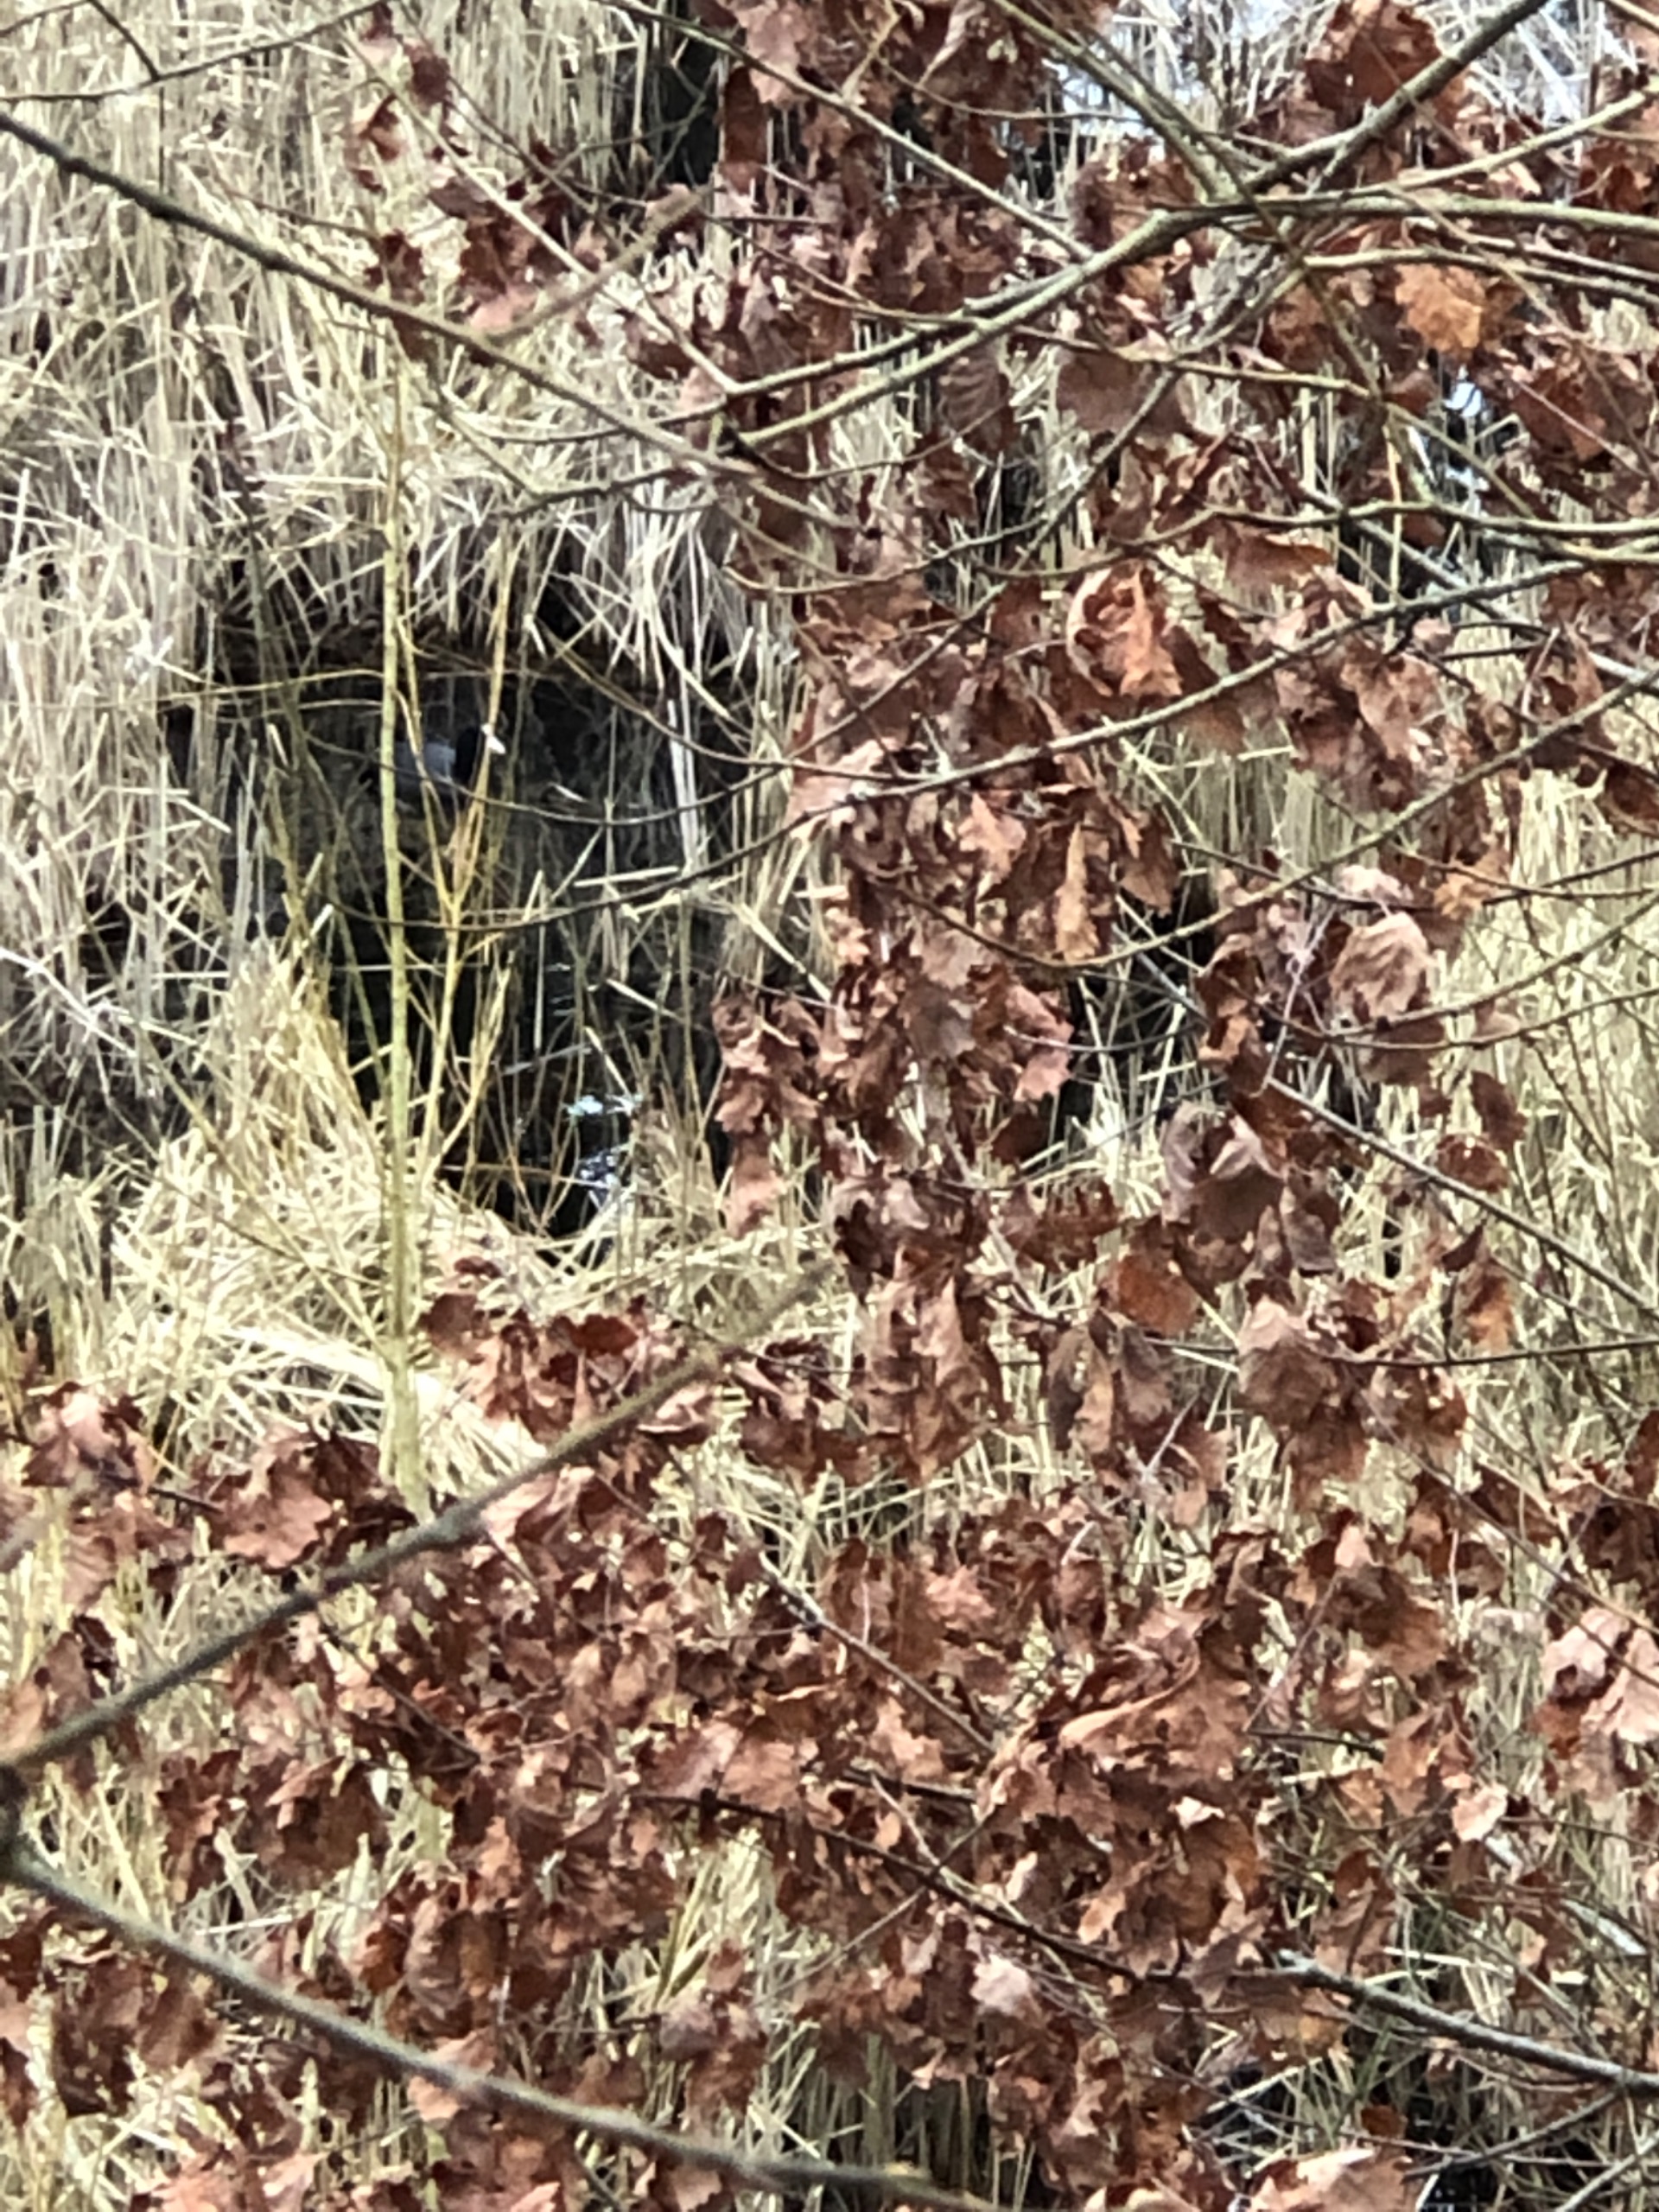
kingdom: Animalia
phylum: Chordata
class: Aves
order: Gruiformes
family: Rallidae
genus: Fulica
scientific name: Fulica atra
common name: Blishøne
